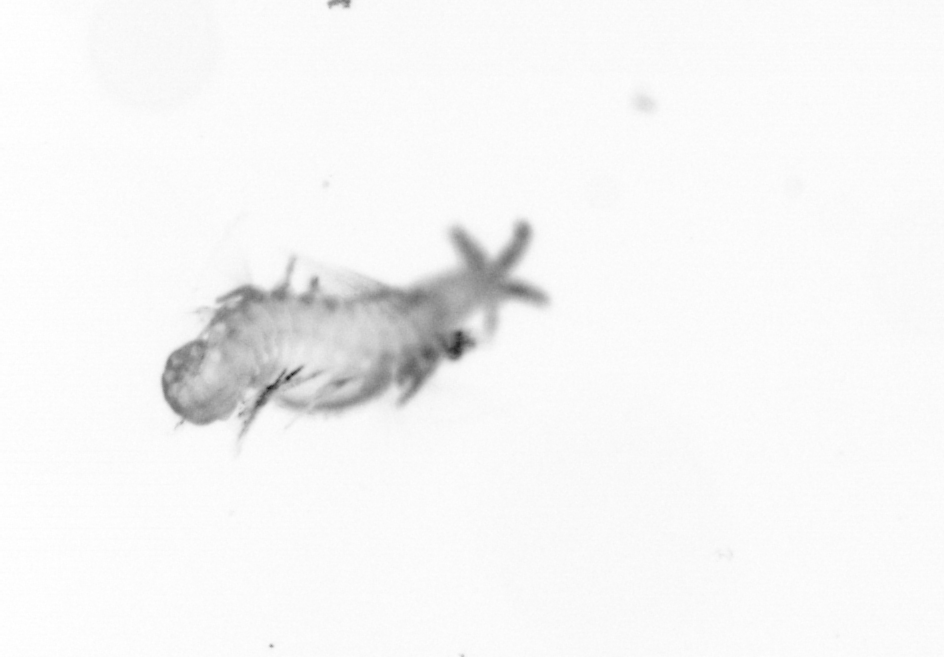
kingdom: Animalia
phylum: Annelida
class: Polychaeta
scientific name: Polychaeta
